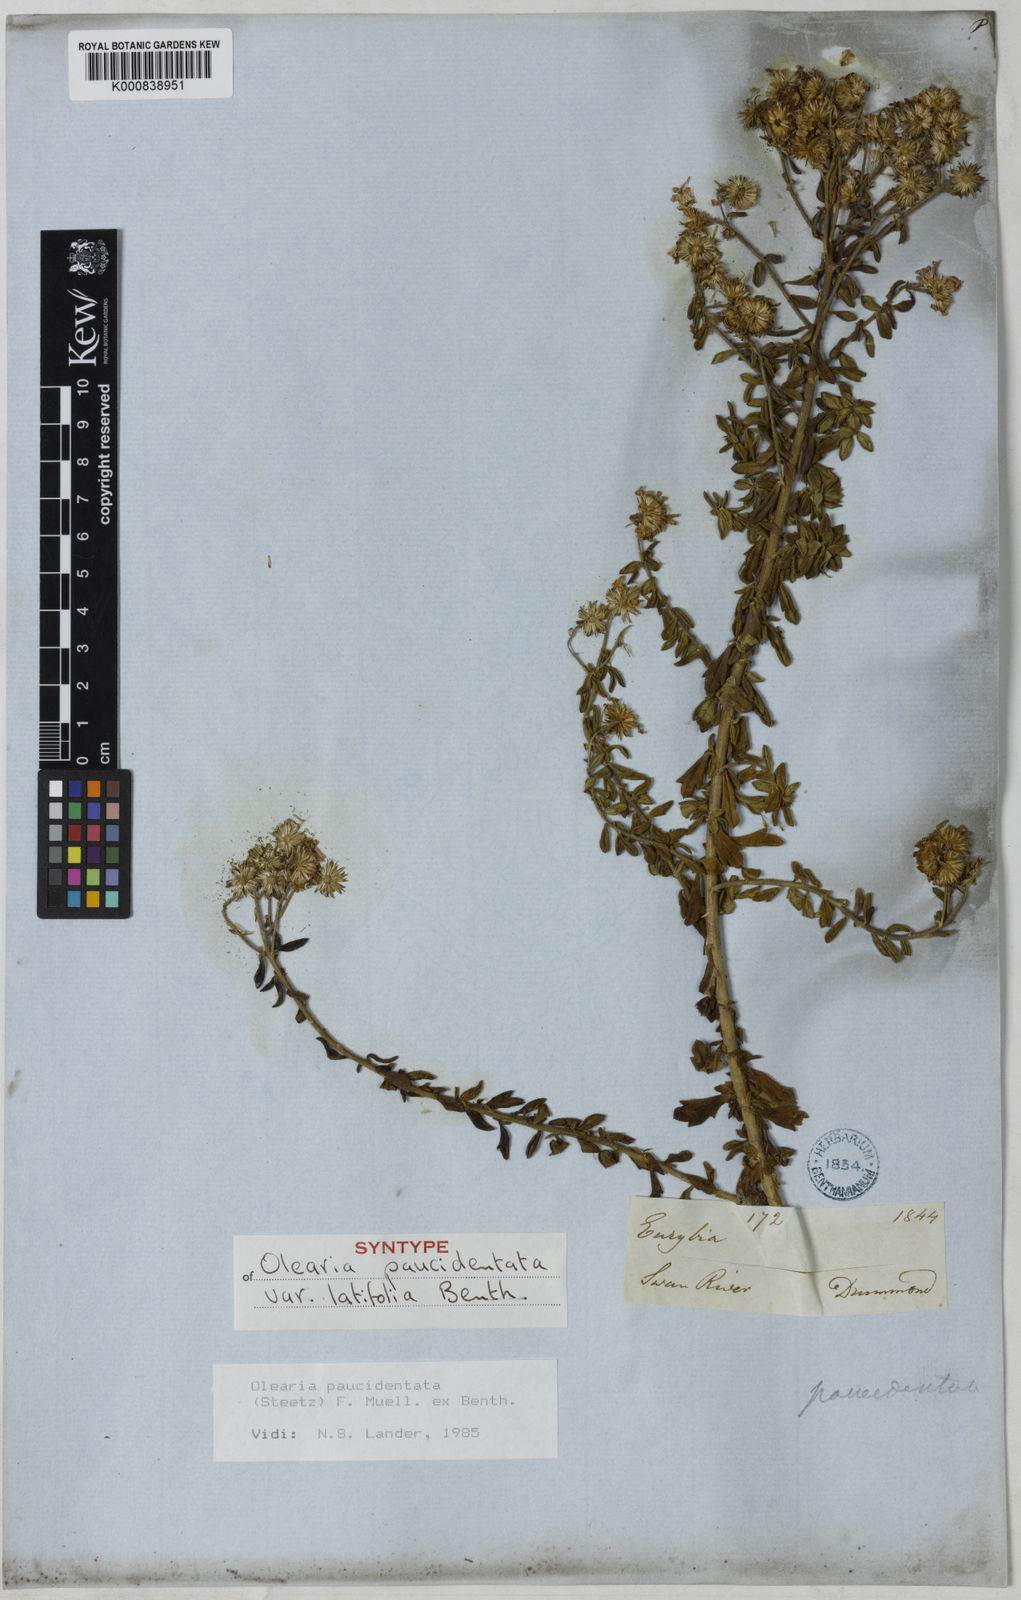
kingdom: Plantae
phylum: Tracheophyta
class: Magnoliopsida
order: Asterales
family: Asteraceae
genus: Olearia
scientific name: Olearia paucidentata
